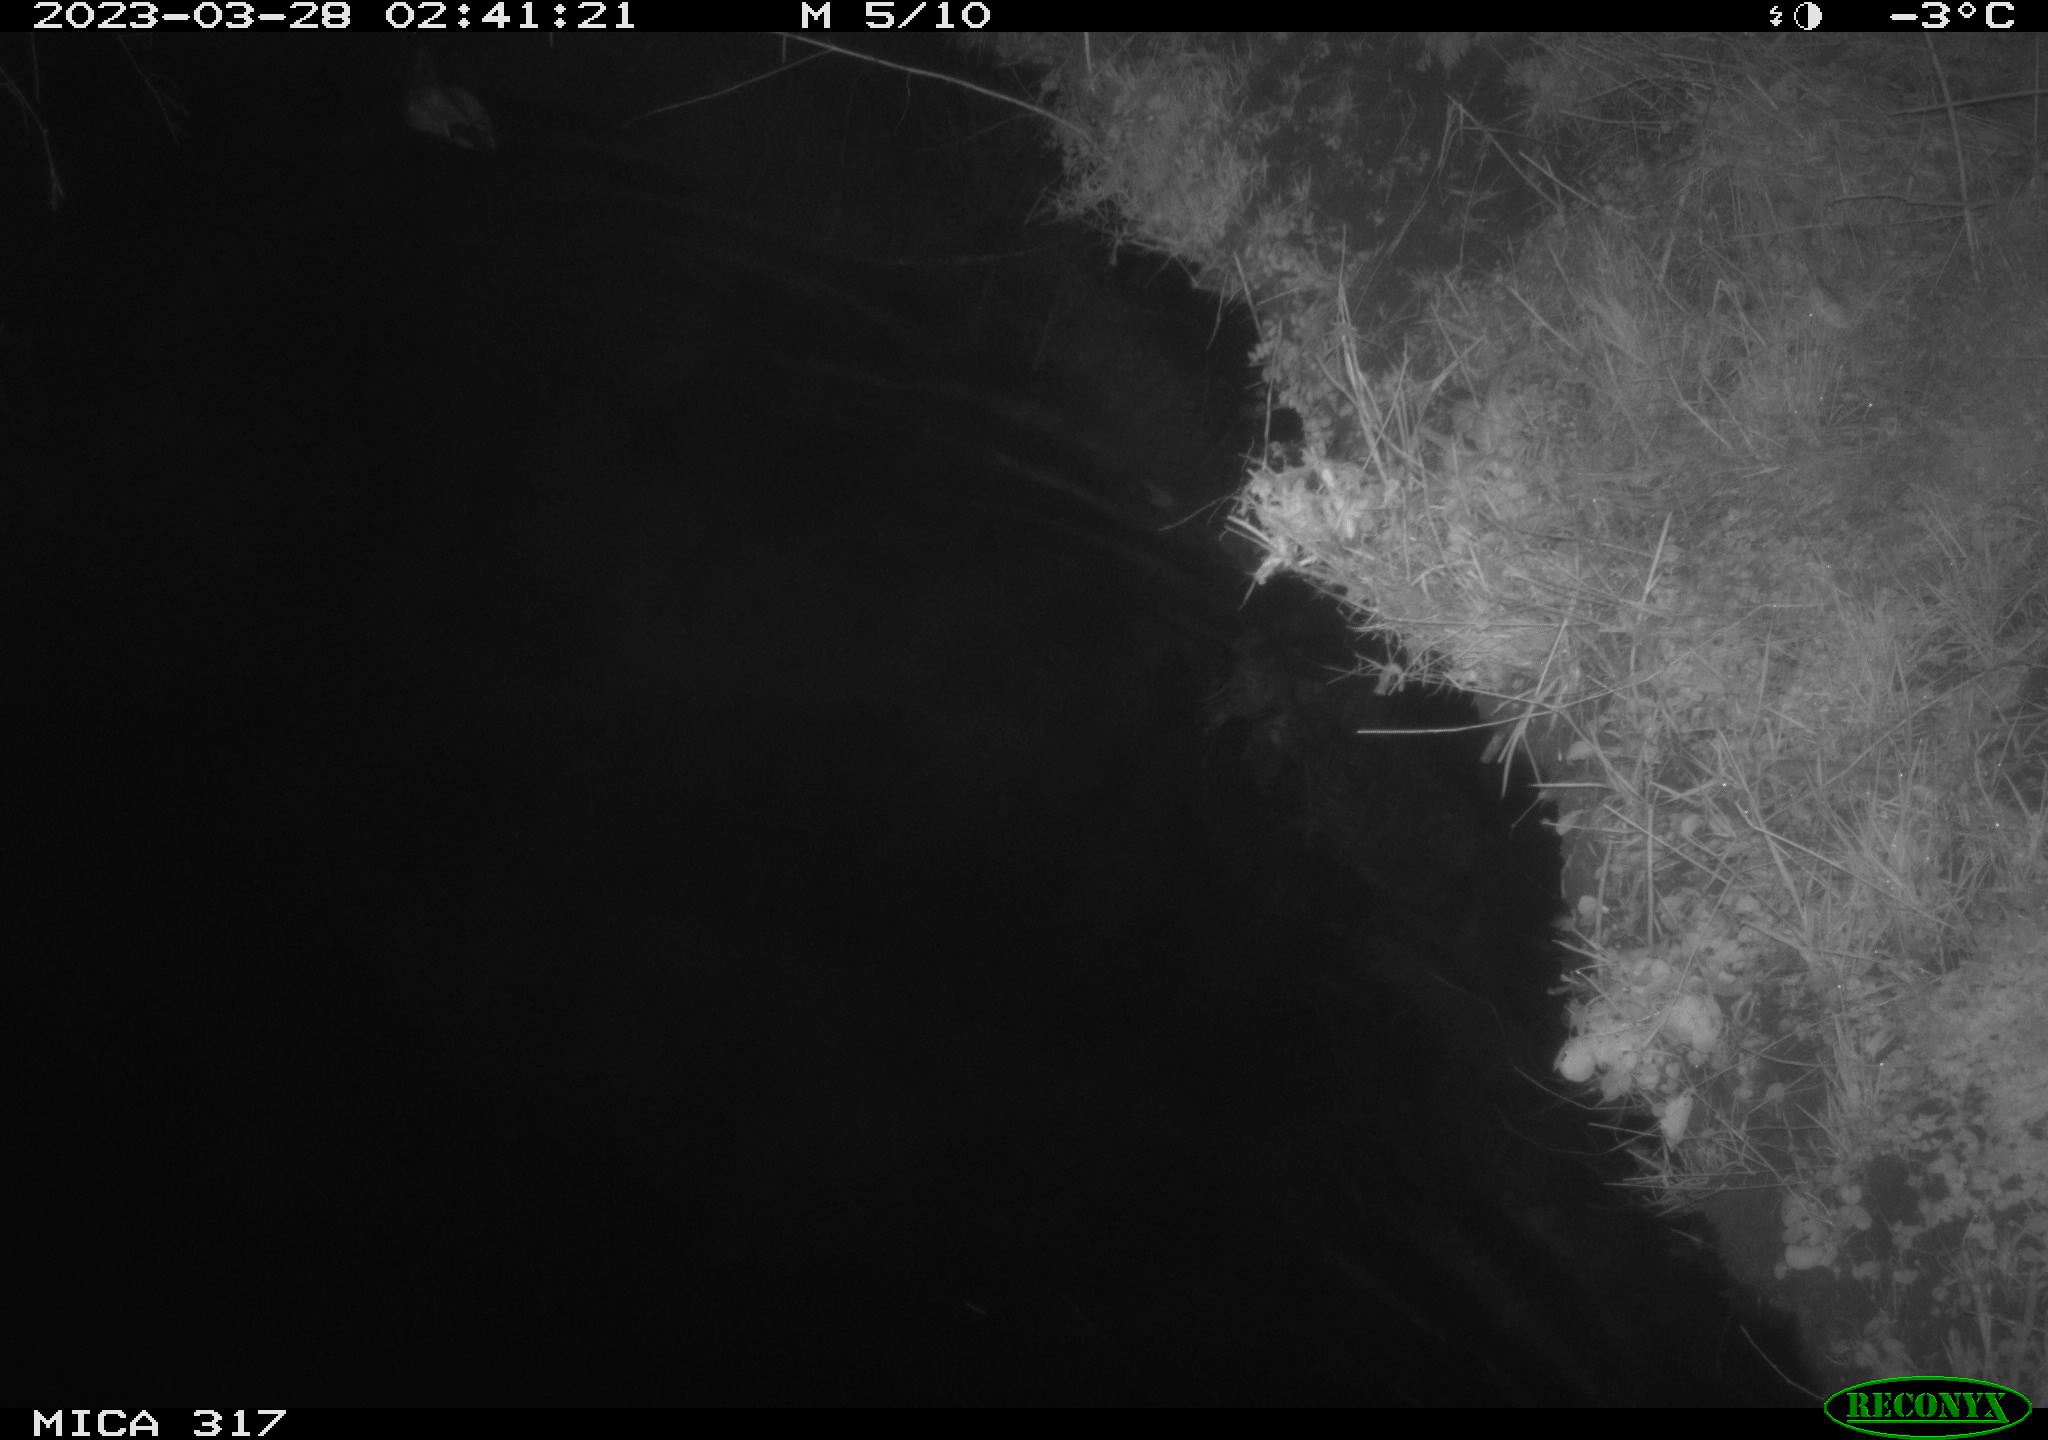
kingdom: Animalia
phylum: Chordata
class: Aves
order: Anseriformes
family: Anatidae
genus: Anas
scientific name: Anas
